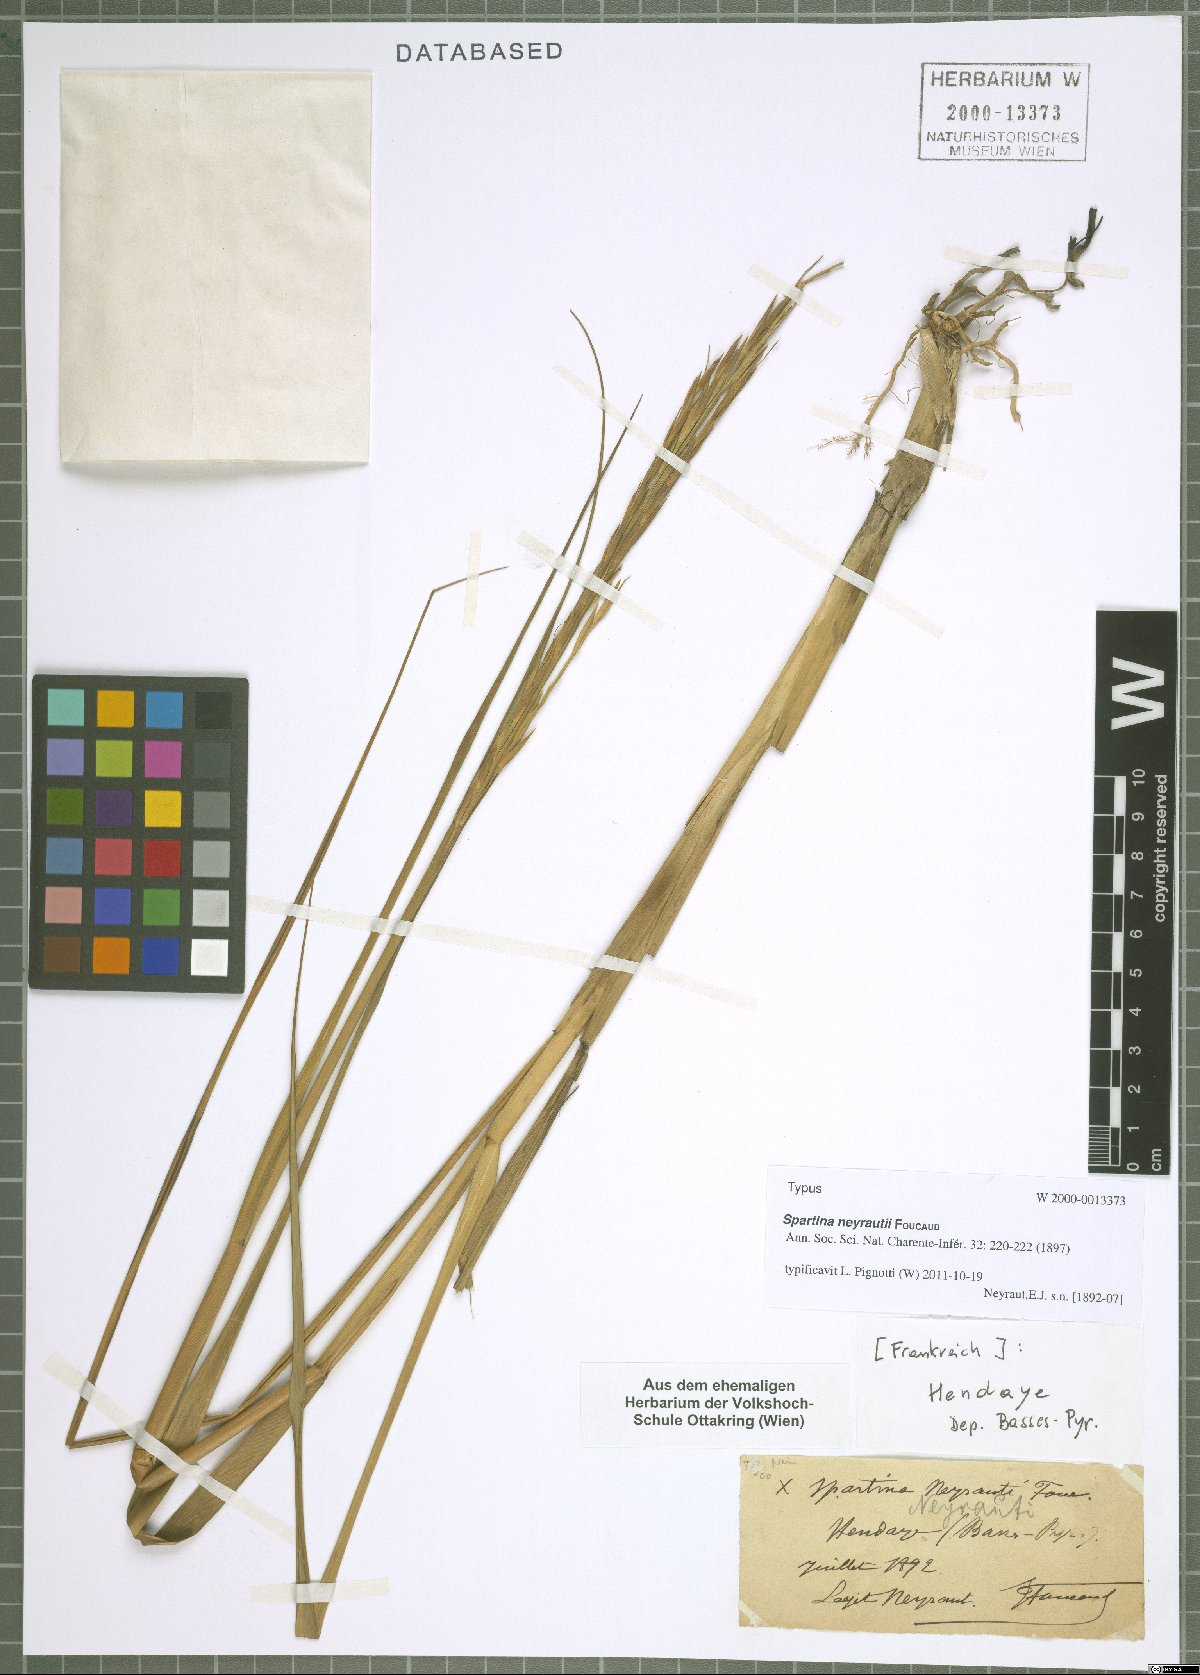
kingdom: Plantae
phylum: Tracheophyta
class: Liliopsida
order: Poales
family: Poaceae
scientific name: Poaceae
